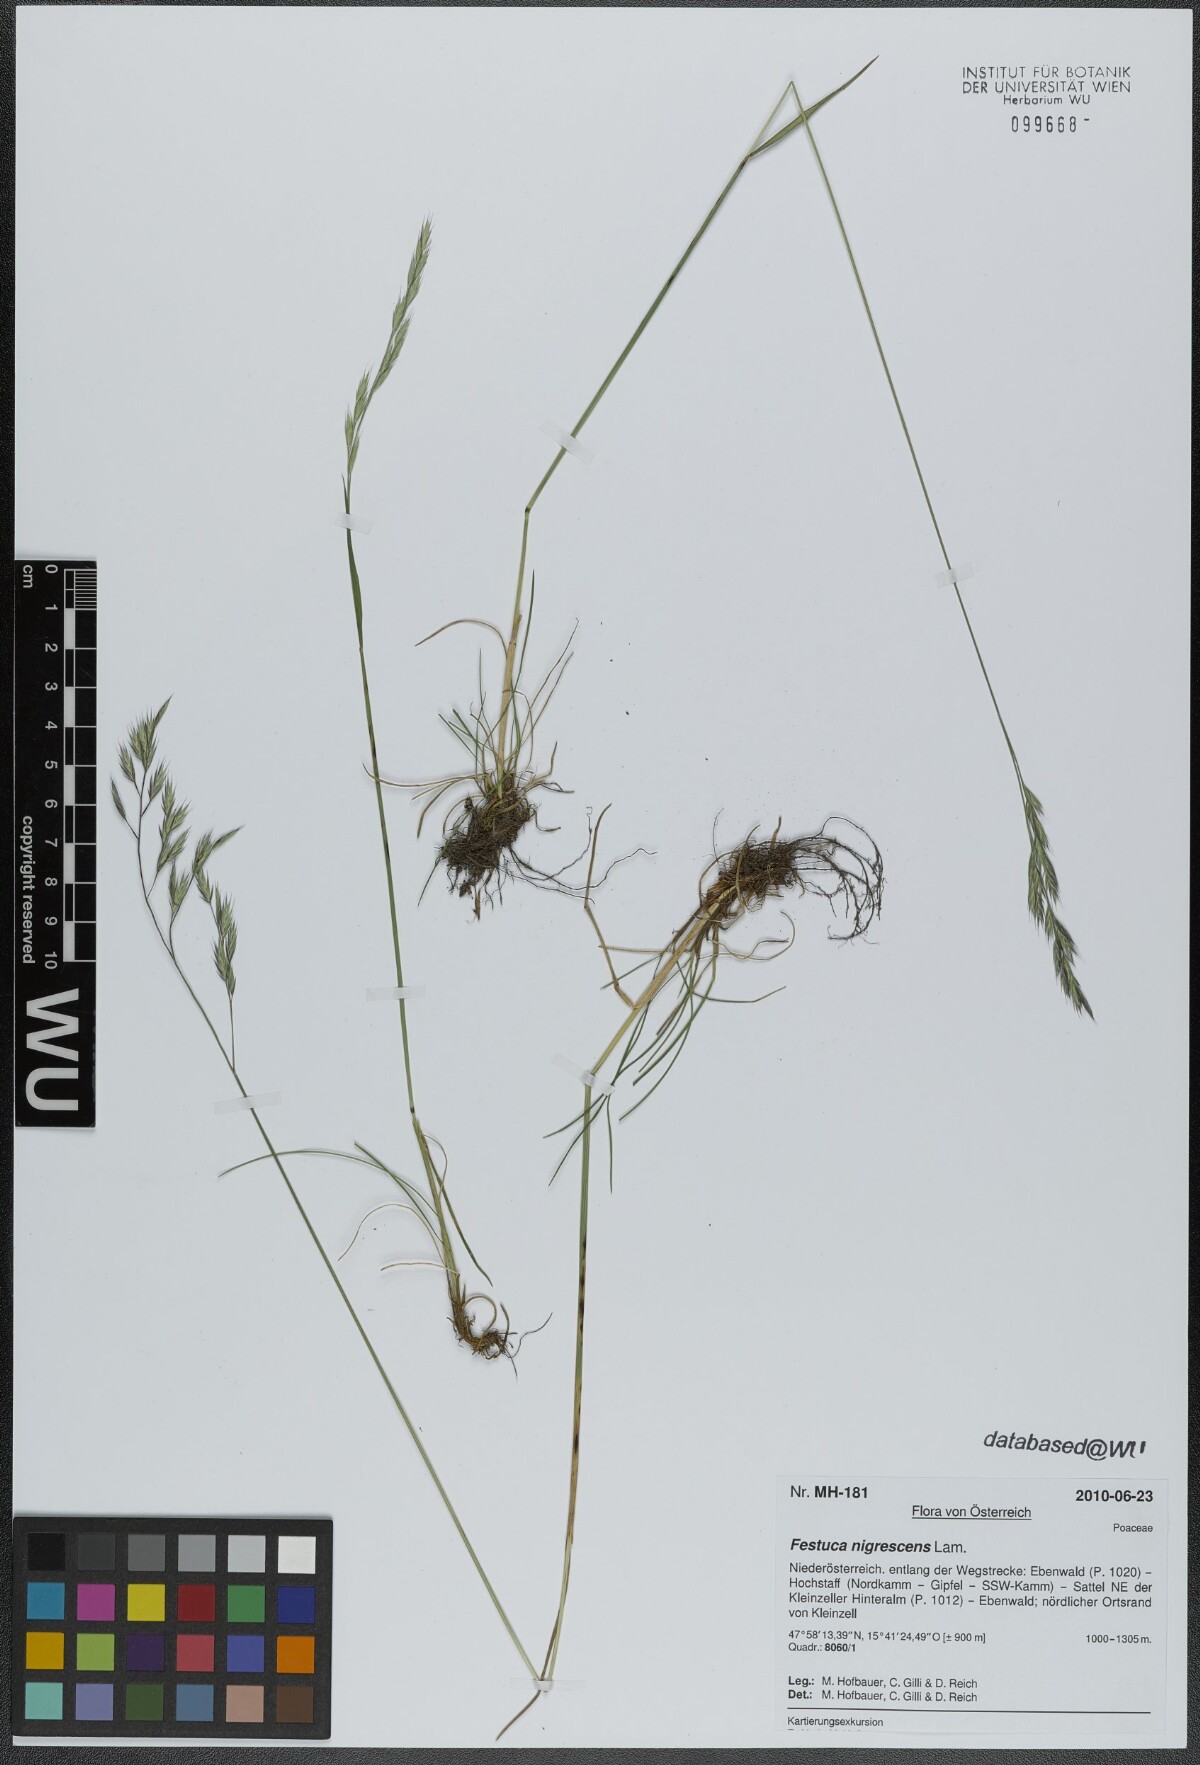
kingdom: Plantae
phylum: Tracheophyta
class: Liliopsida
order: Poales
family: Poaceae
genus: Festuca
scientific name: Festuca nigrescens
